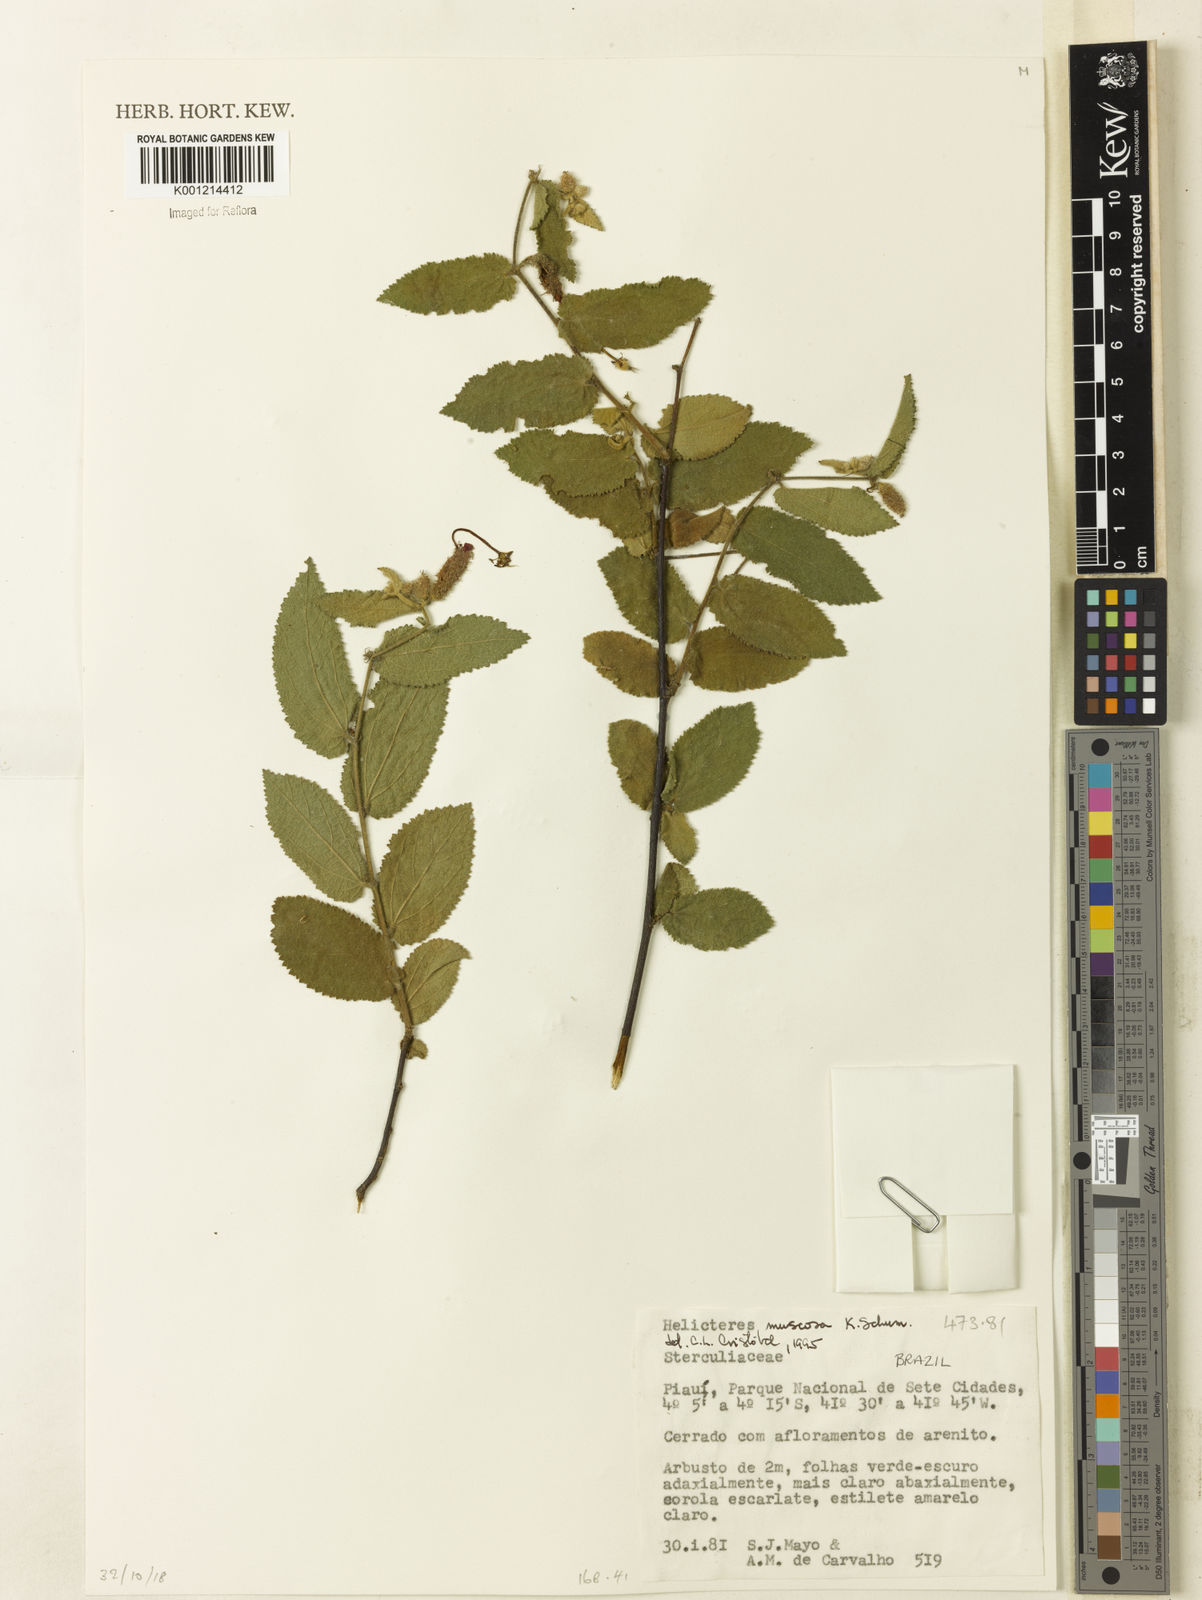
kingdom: Plantae
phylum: Tracheophyta
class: Magnoliopsida
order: Malvales
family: Malvaceae
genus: Helicteres
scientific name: Helicteres muscosa
